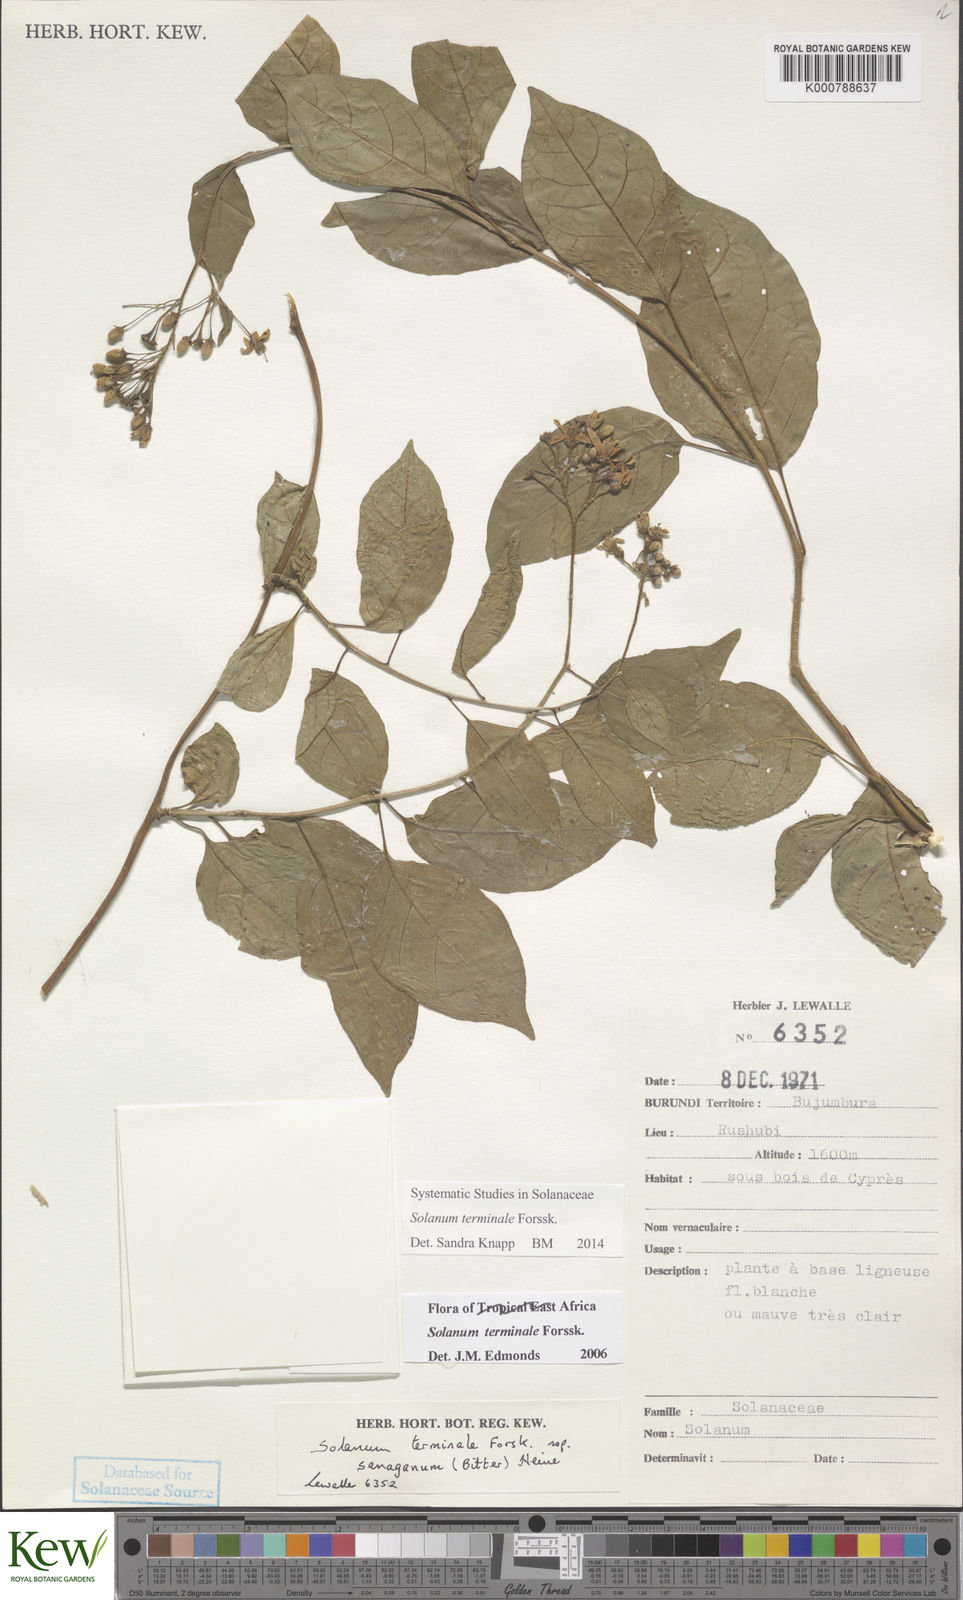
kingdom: Plantae
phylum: Tracheophyta
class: Magnoliopsida
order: Solanales
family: Solanaceae
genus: Solanum
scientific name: Solanum terminale
